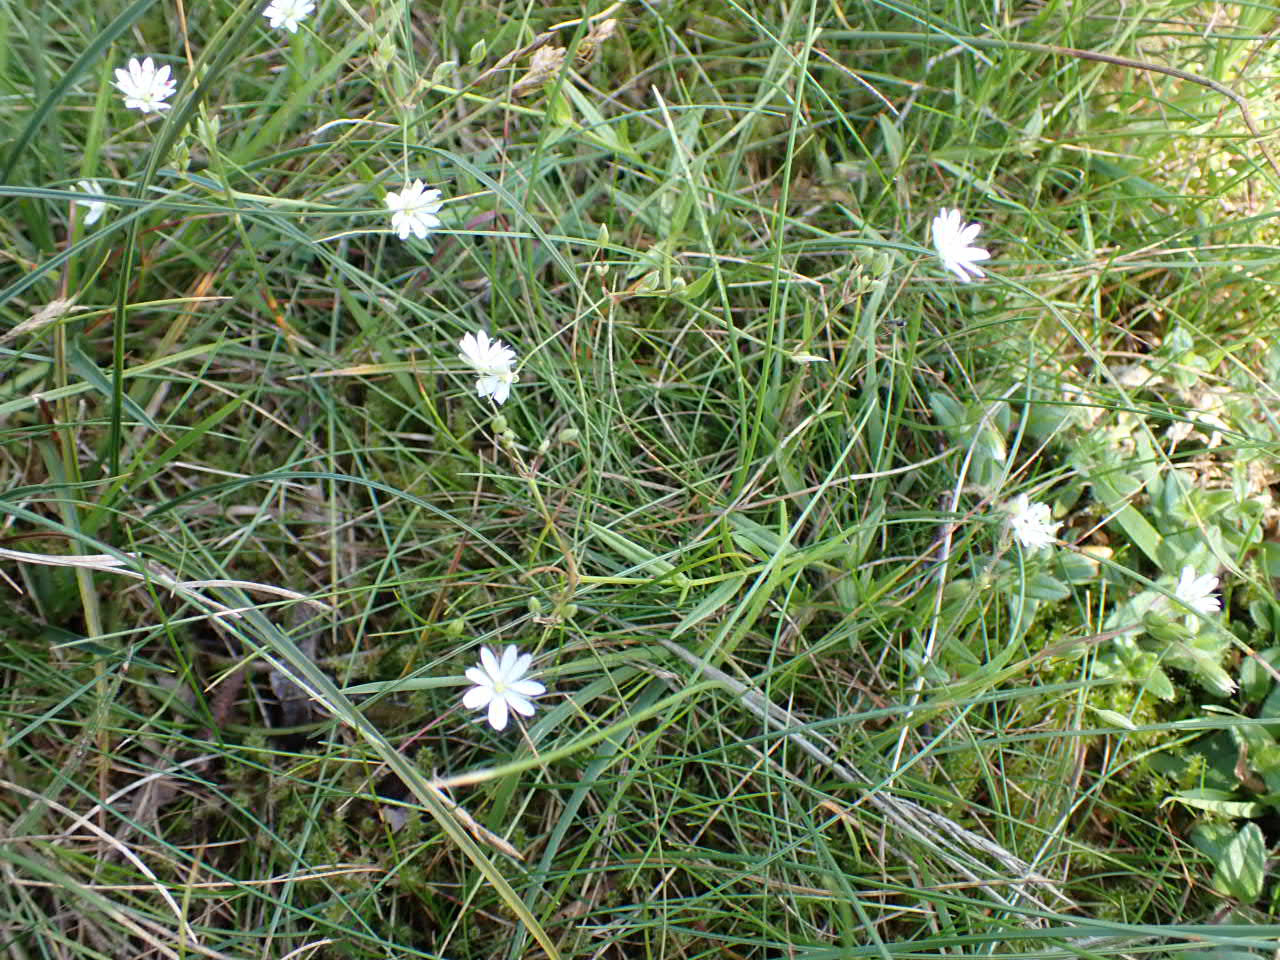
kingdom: Plantae
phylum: Tracheophyta
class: Magnoliopsida
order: Caryophyllales
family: Caryophyllaceae
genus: Stellaria
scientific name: Stellaria graminea
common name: Græsbladet fladstjerne
